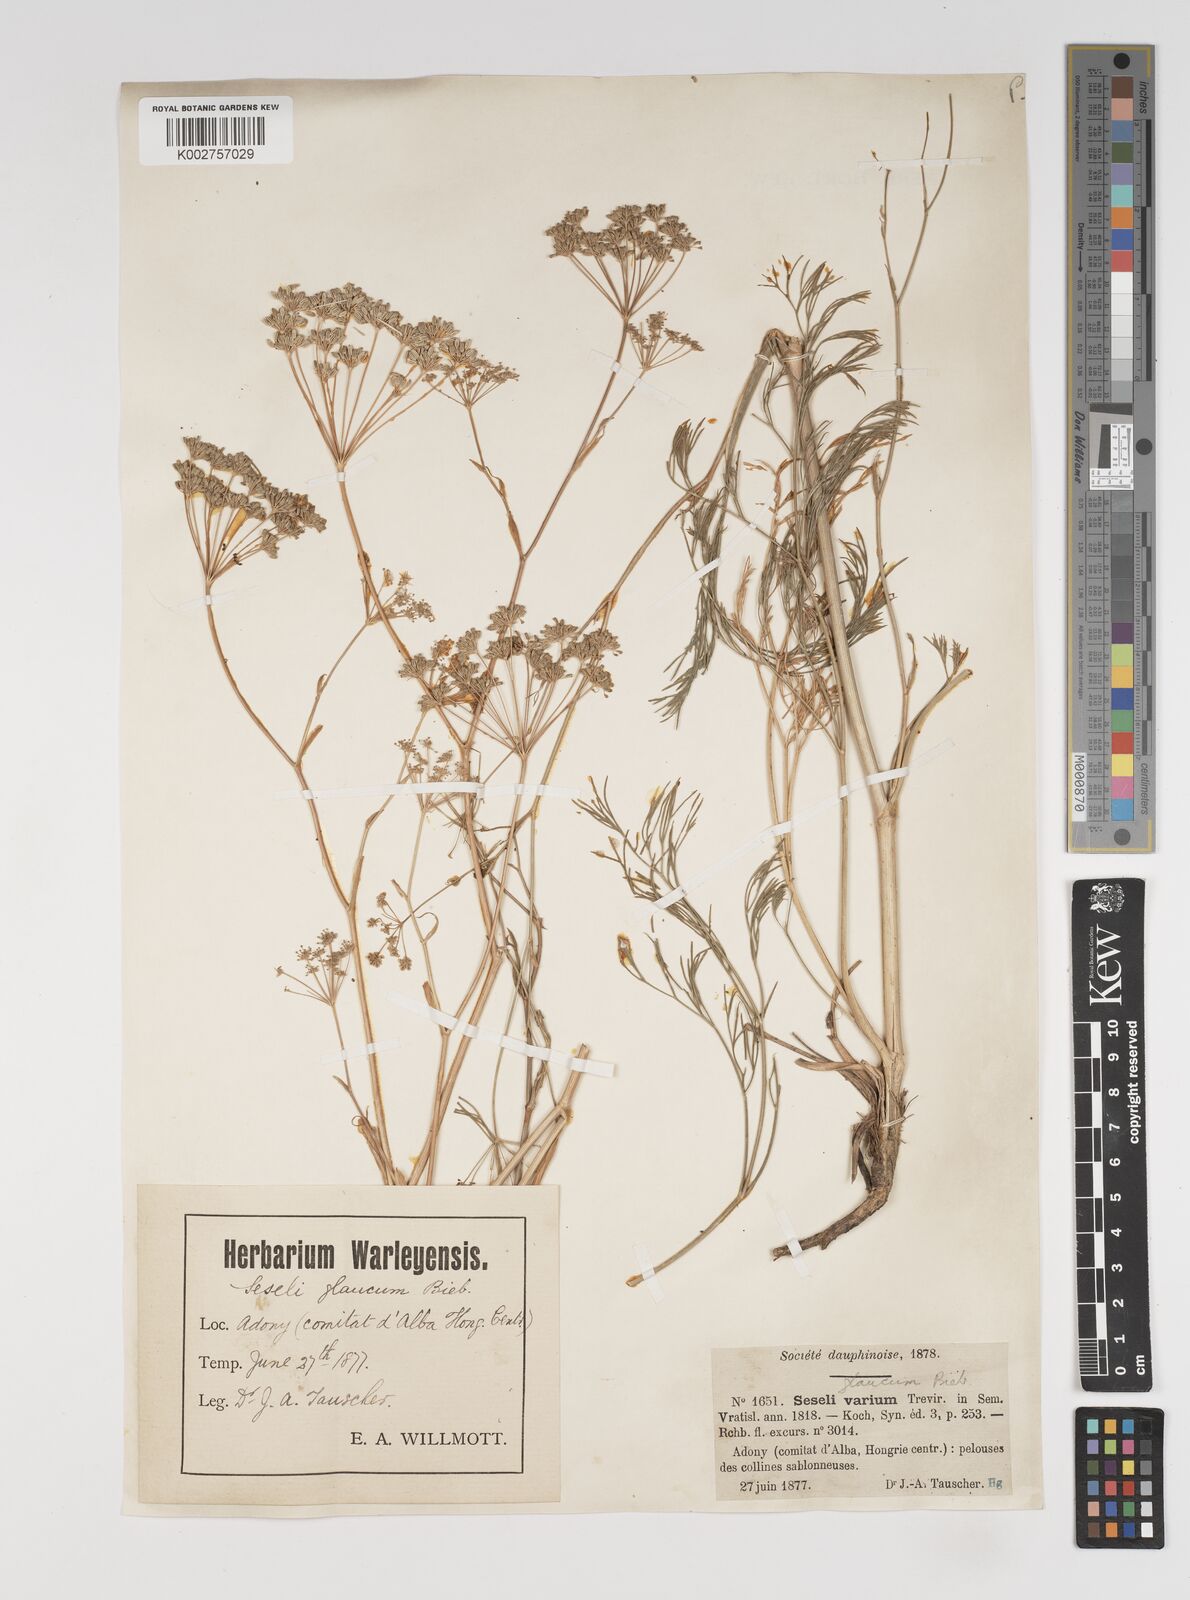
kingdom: Plantae
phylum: Tracheophyta
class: Magnoliopsida
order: Apiales
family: Apiaceae
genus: Seseli
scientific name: Seseli montanum
